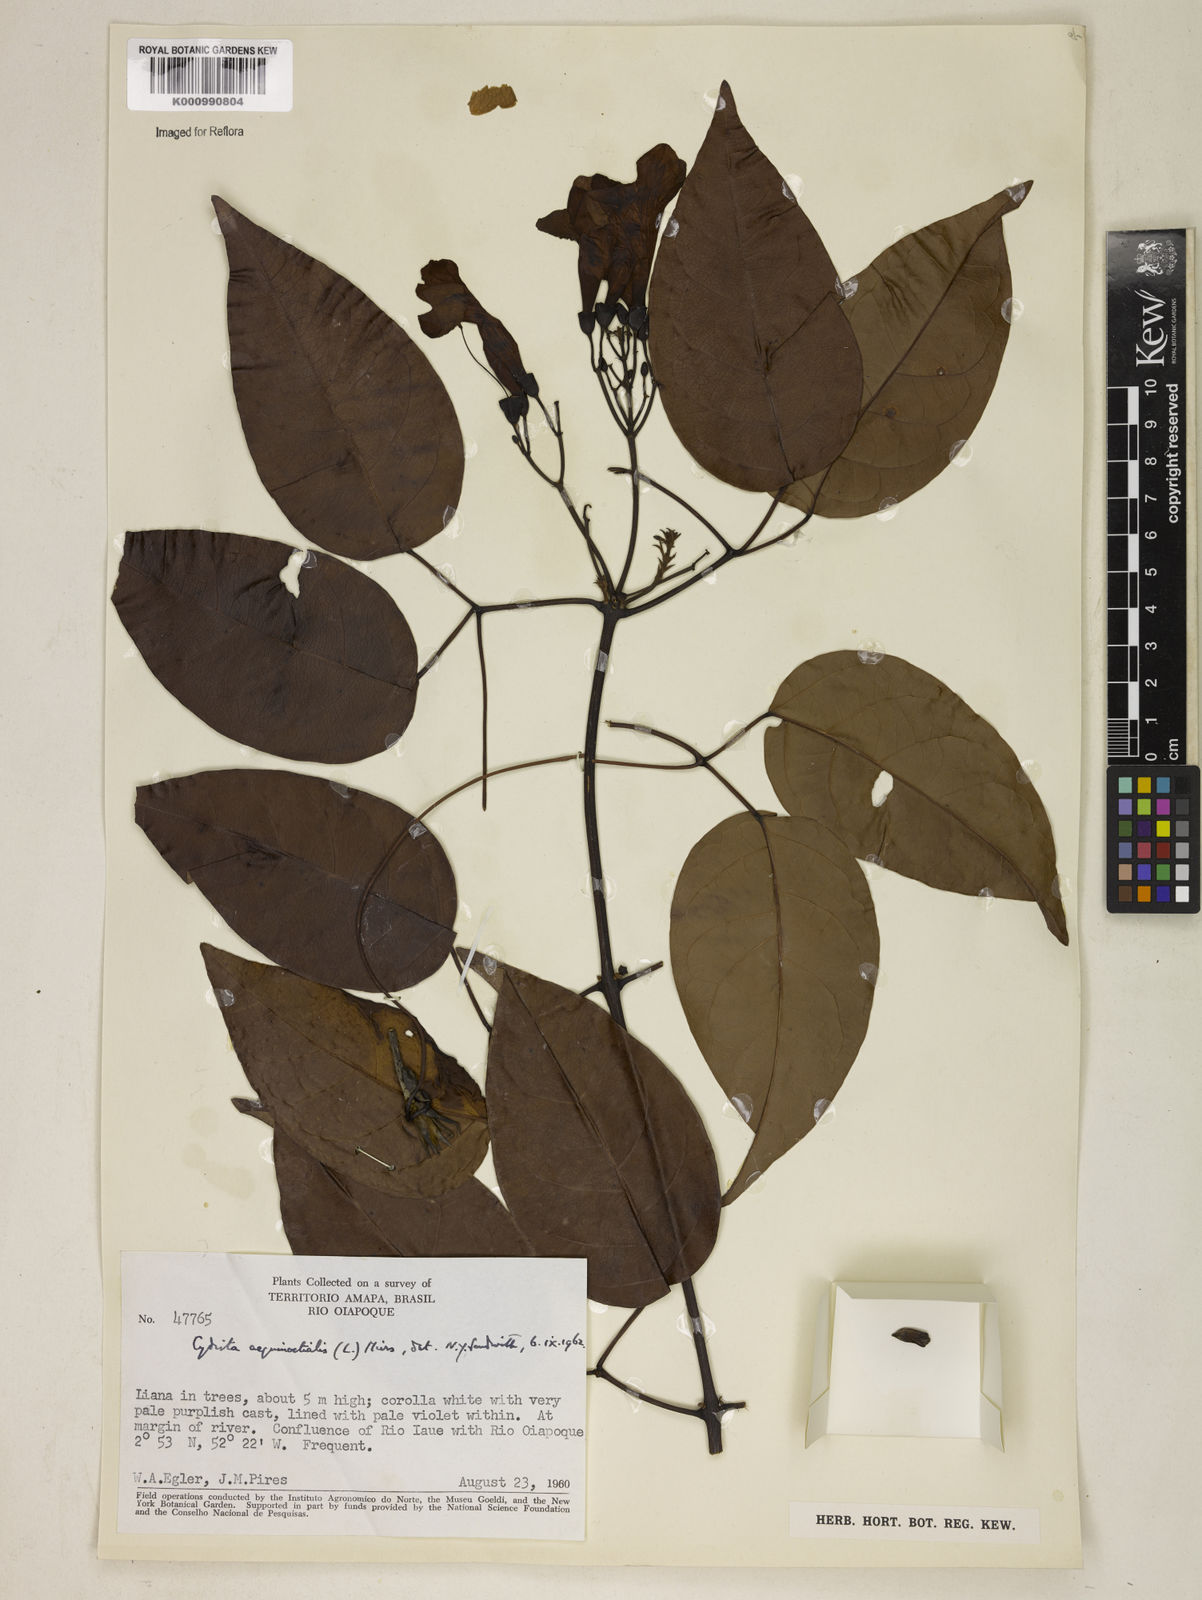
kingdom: Plantae
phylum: Tracheophyta
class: Magnoliopsida
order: Lamiales
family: Bignoniaceae
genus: Bignonia
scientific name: Bignonia aequinoctialis
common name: Garlicvine
